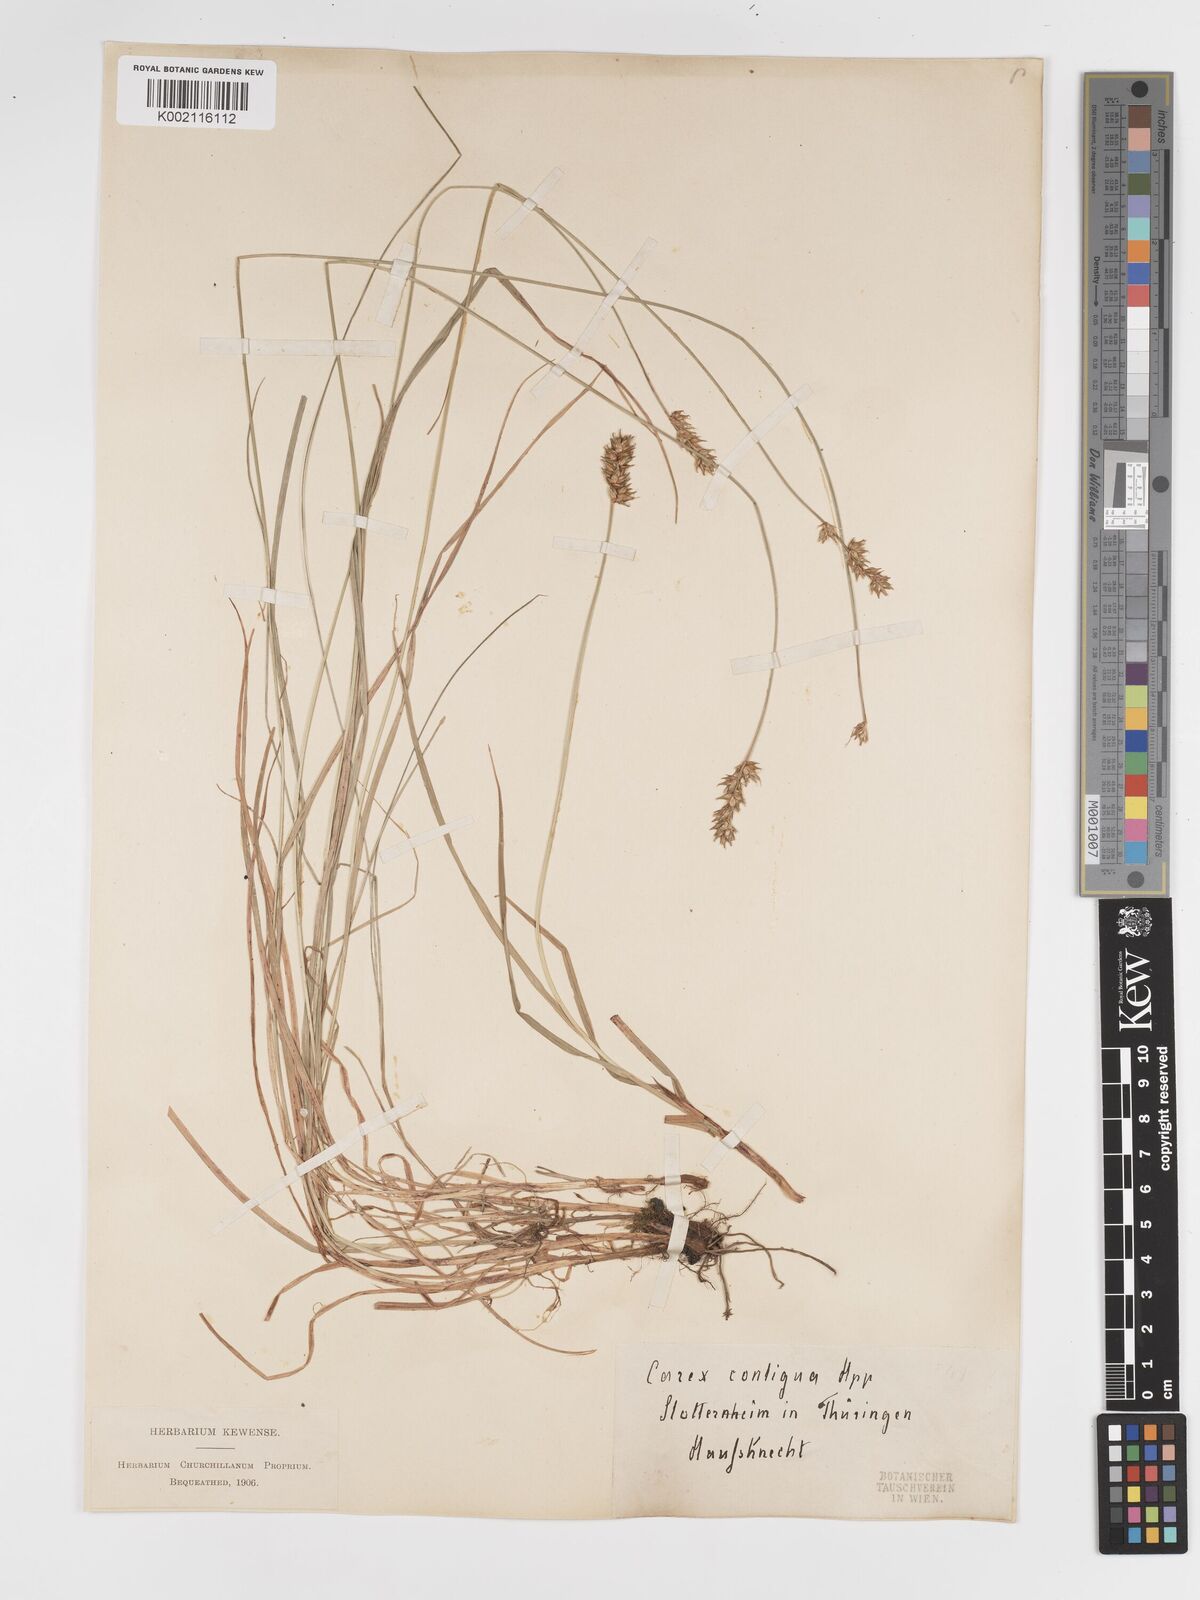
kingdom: Plantae
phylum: Tracheophyta
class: Liliopsida
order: Poales
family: Cyperaceae
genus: Carex
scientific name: Carex spicata
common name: Spiked sedge
